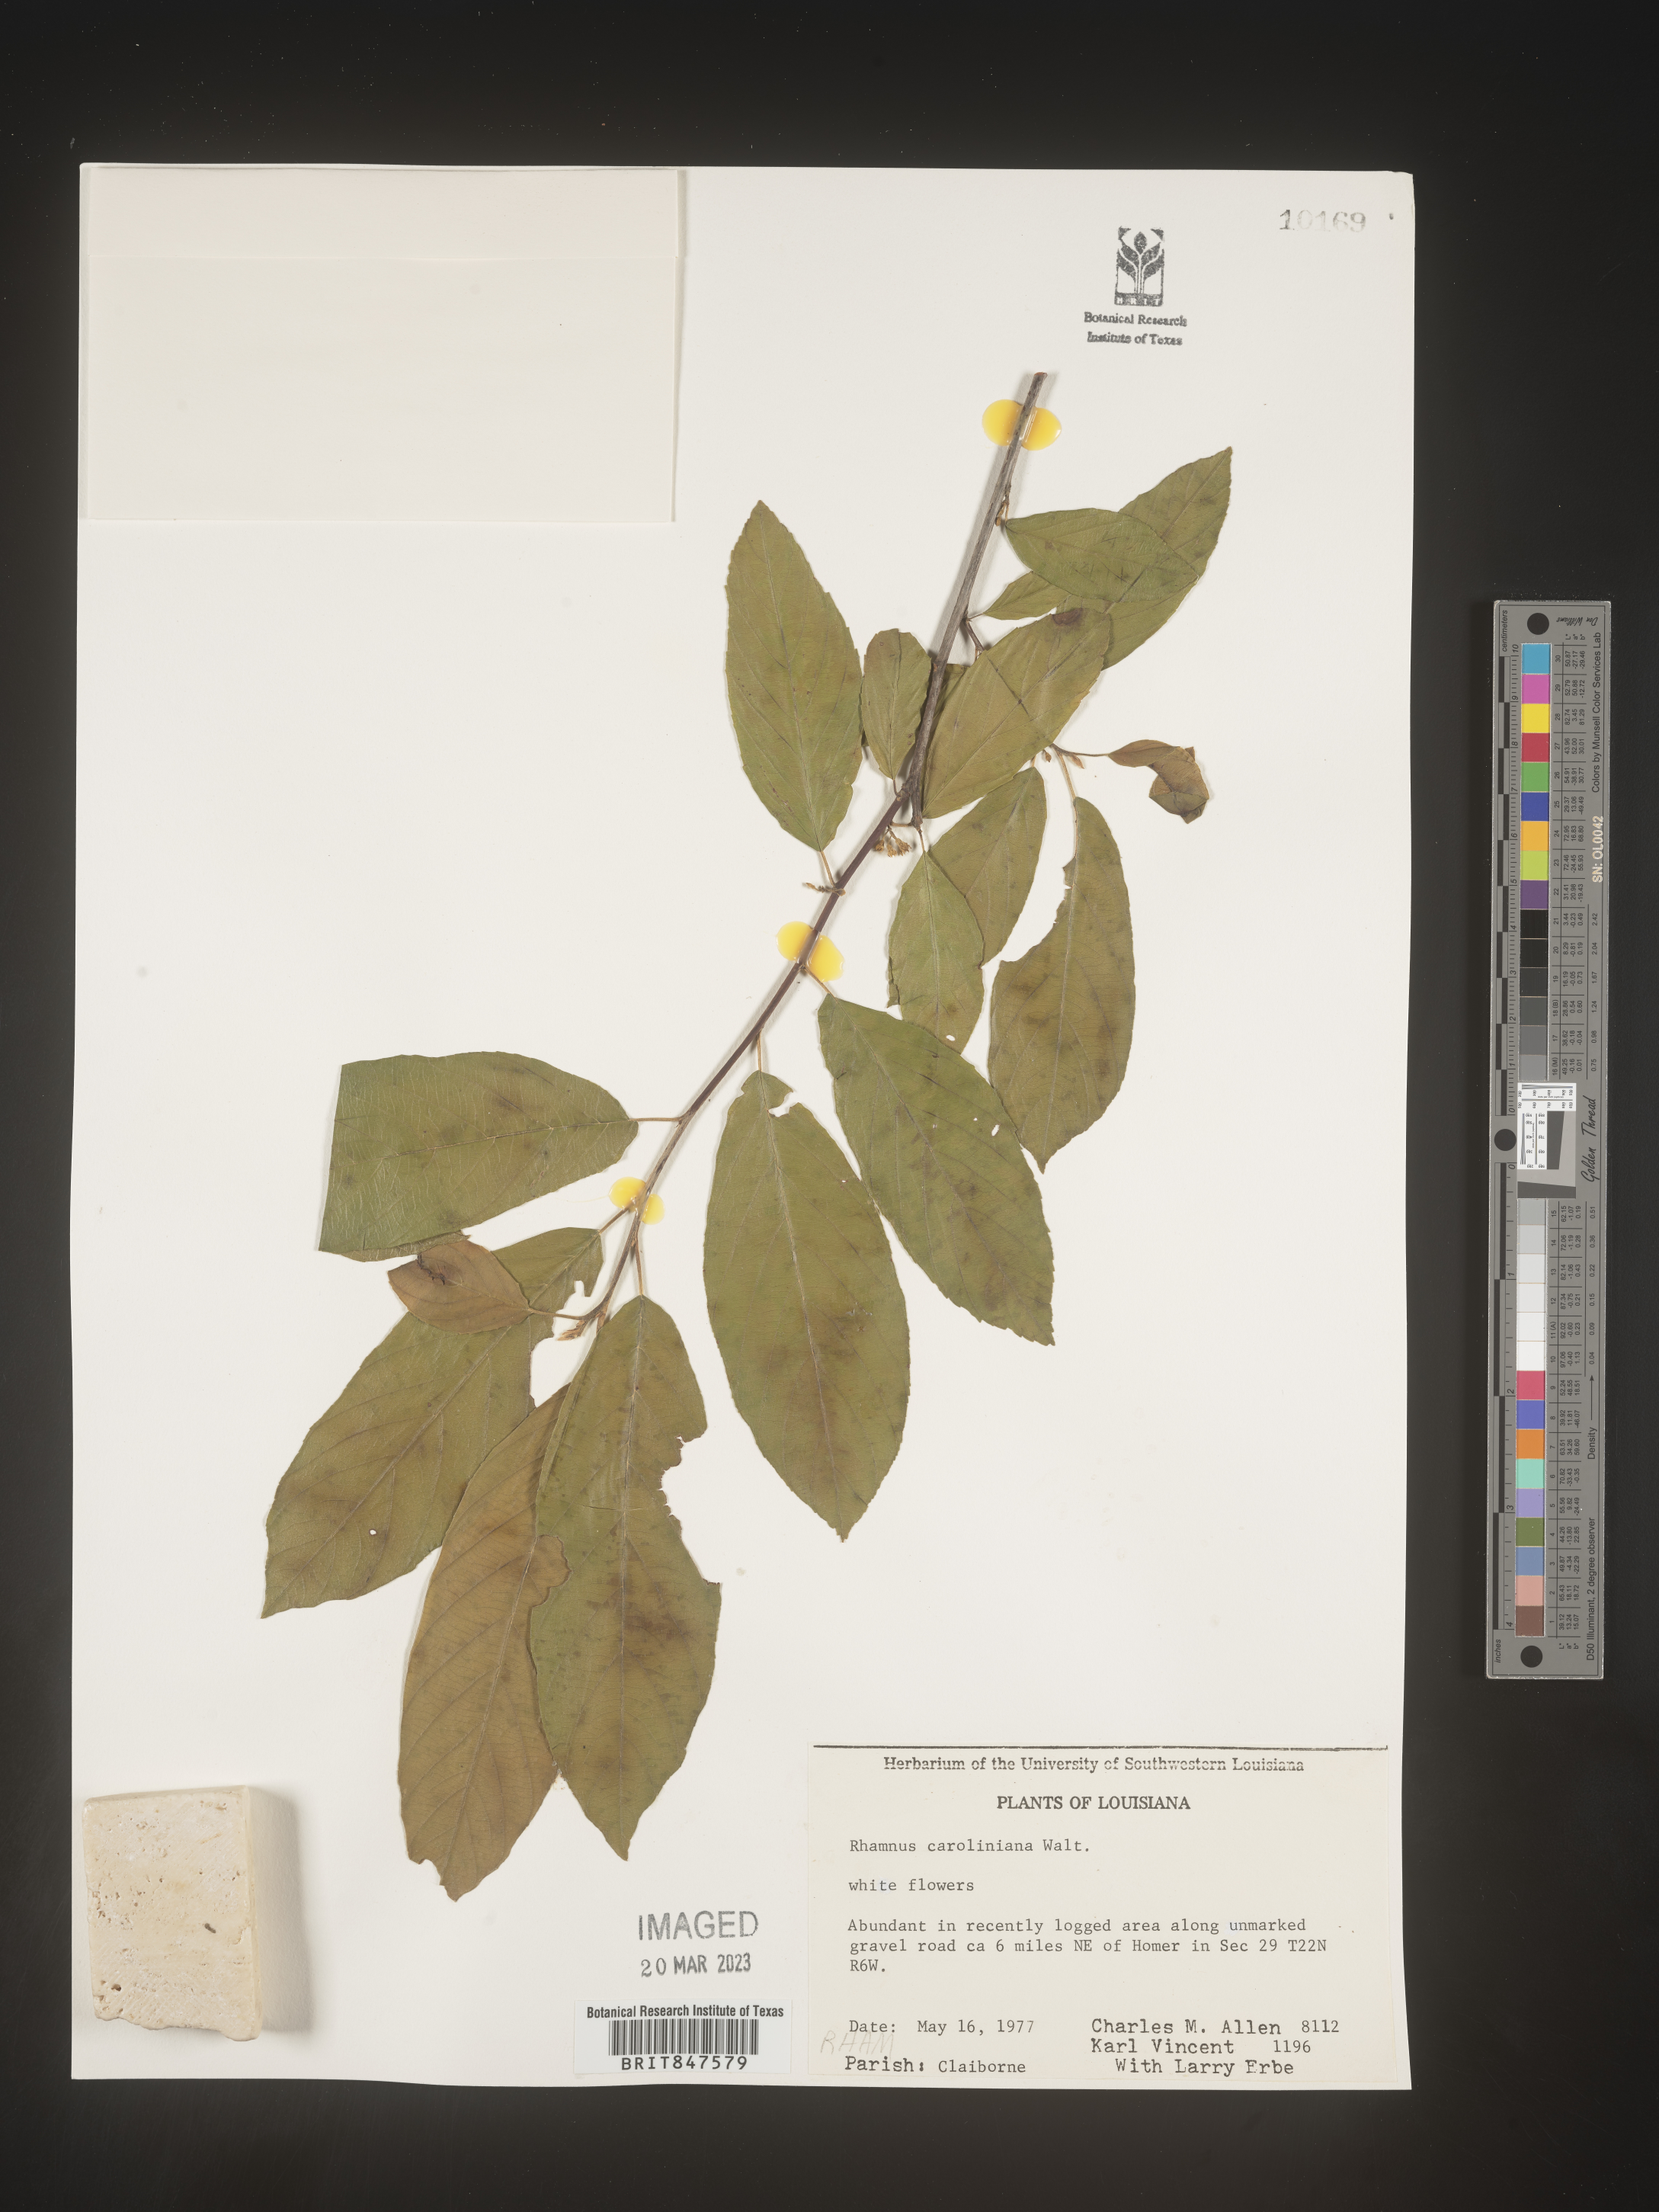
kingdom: Plantae
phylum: Tracheophyta
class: Magnoliopsida
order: Rosales
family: Rhamnaceae
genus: Frangula
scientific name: Frangula caroliniana
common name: Carolina buckthorn
